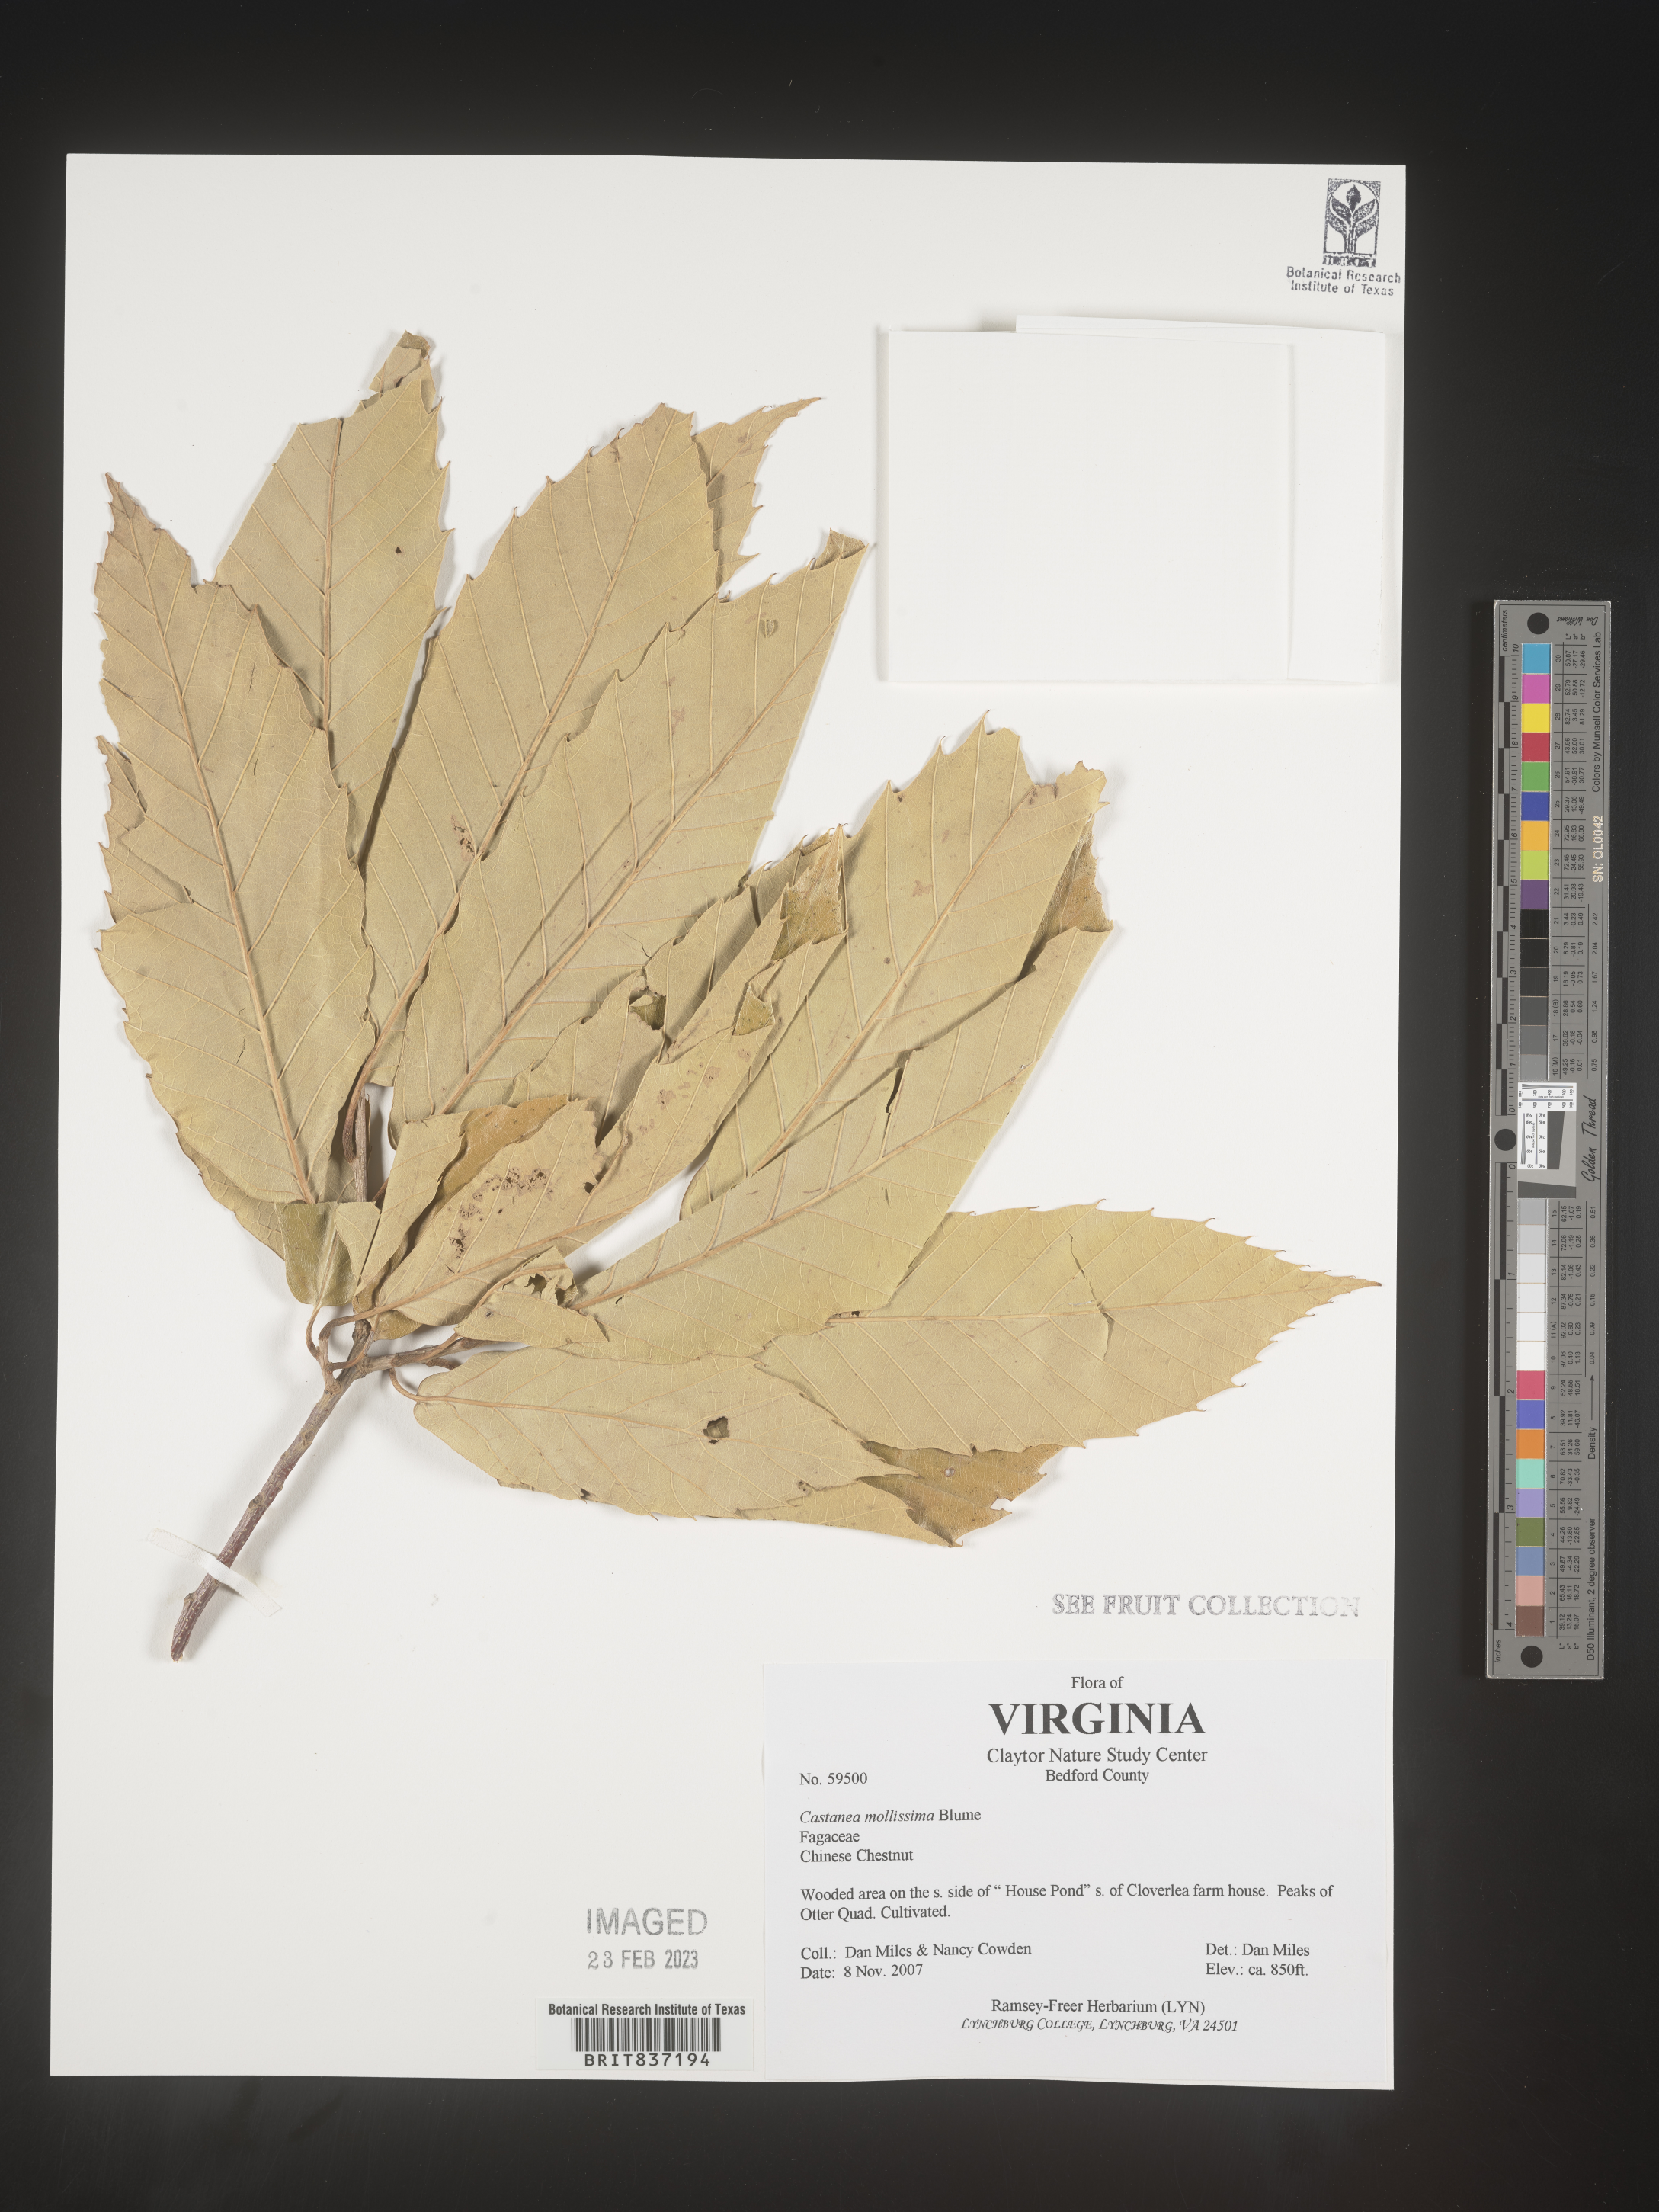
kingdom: Plantae
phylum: Tracheophyta
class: Magnoliopsida
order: Fagales
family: Fagaceae
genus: Castanea
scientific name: Castanea mollissima
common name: Chinese chestnut
